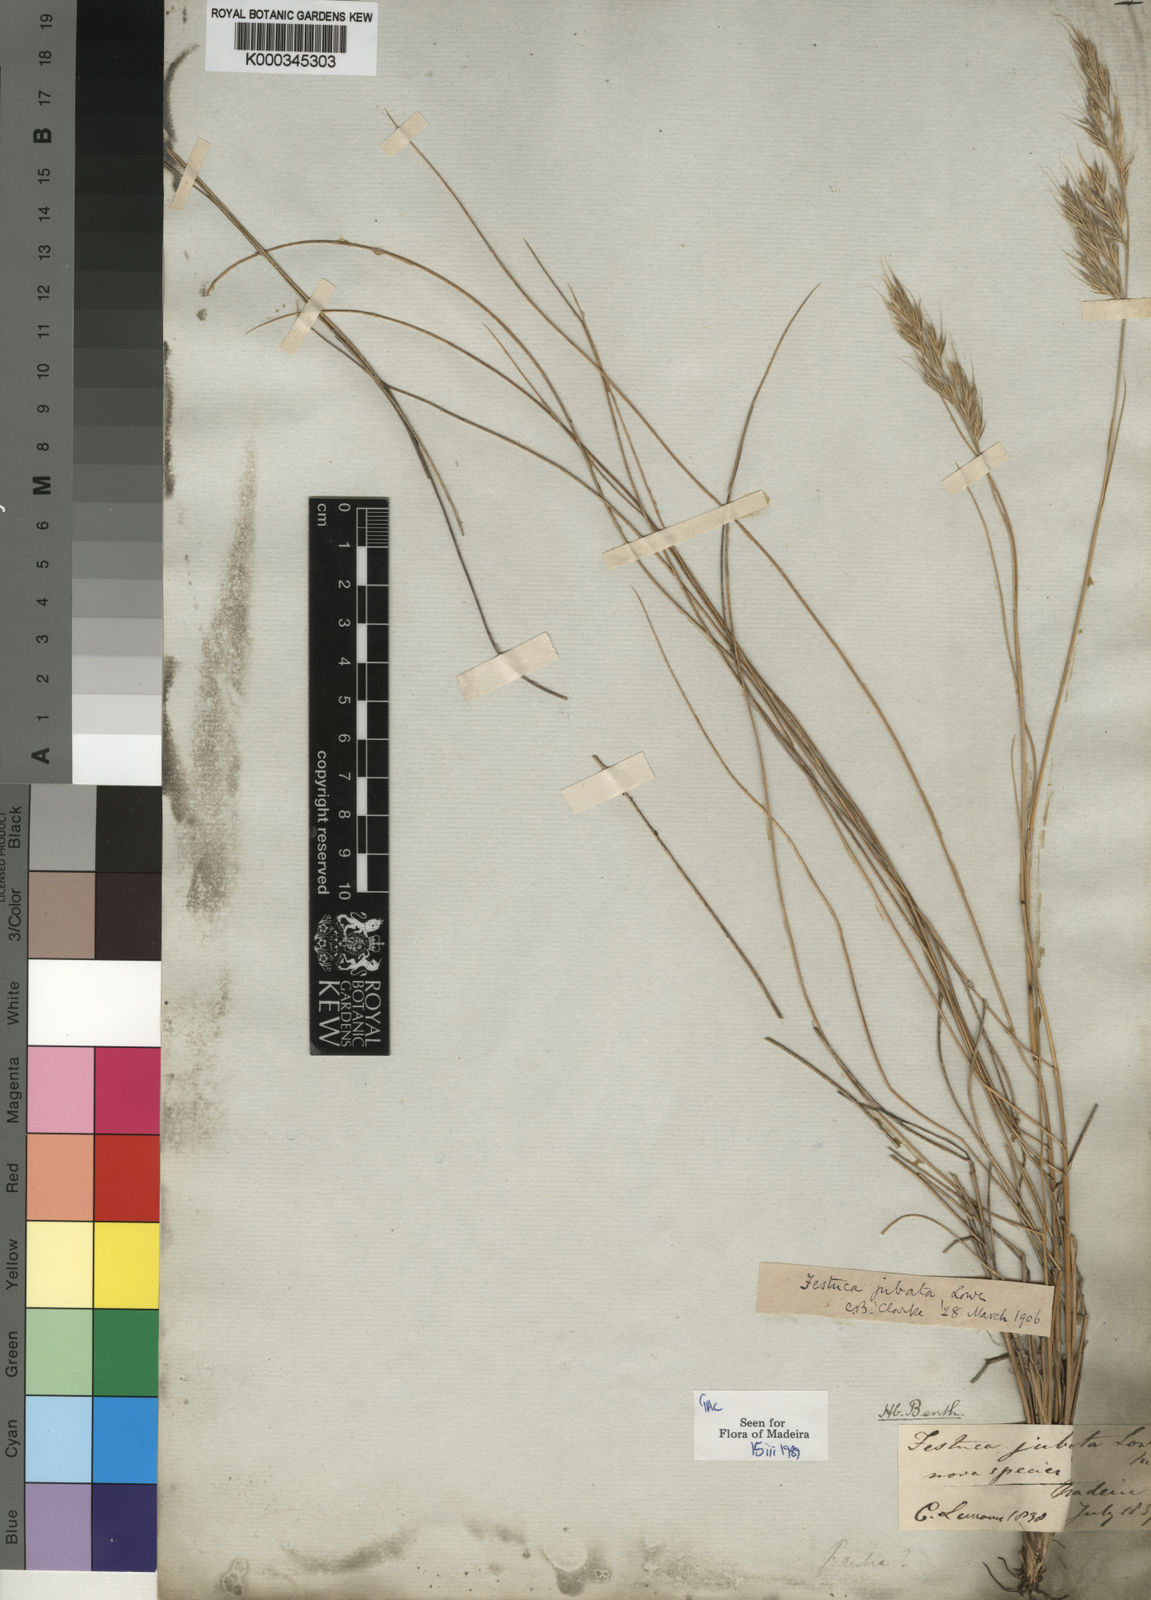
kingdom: Plantae
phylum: Tracheophyta
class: Liliopsida
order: Poales
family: Poaceae
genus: Festuca
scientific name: Festuca jubata
